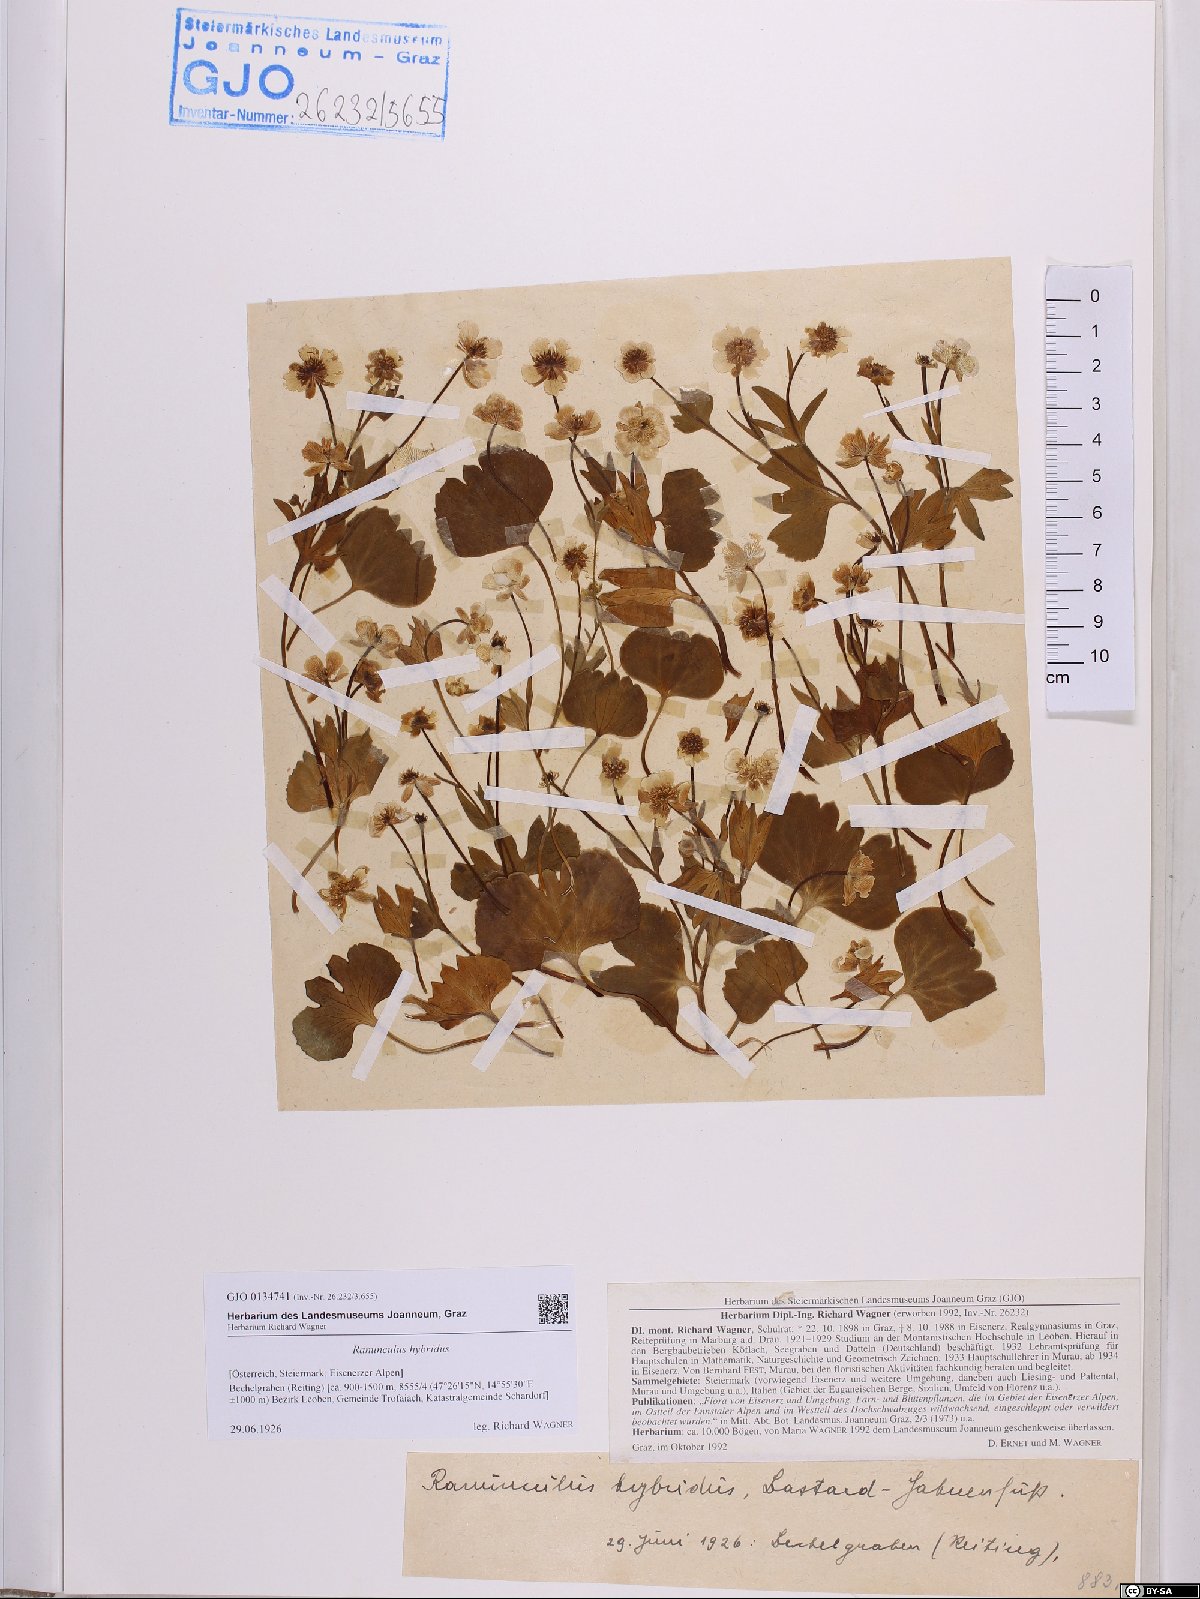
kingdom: Plantae
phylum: Tracheophyta
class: Magnoliopsida
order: Ranunculales
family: Ranunculaceae
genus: Ranunculus
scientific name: Ranunculus hybridus
